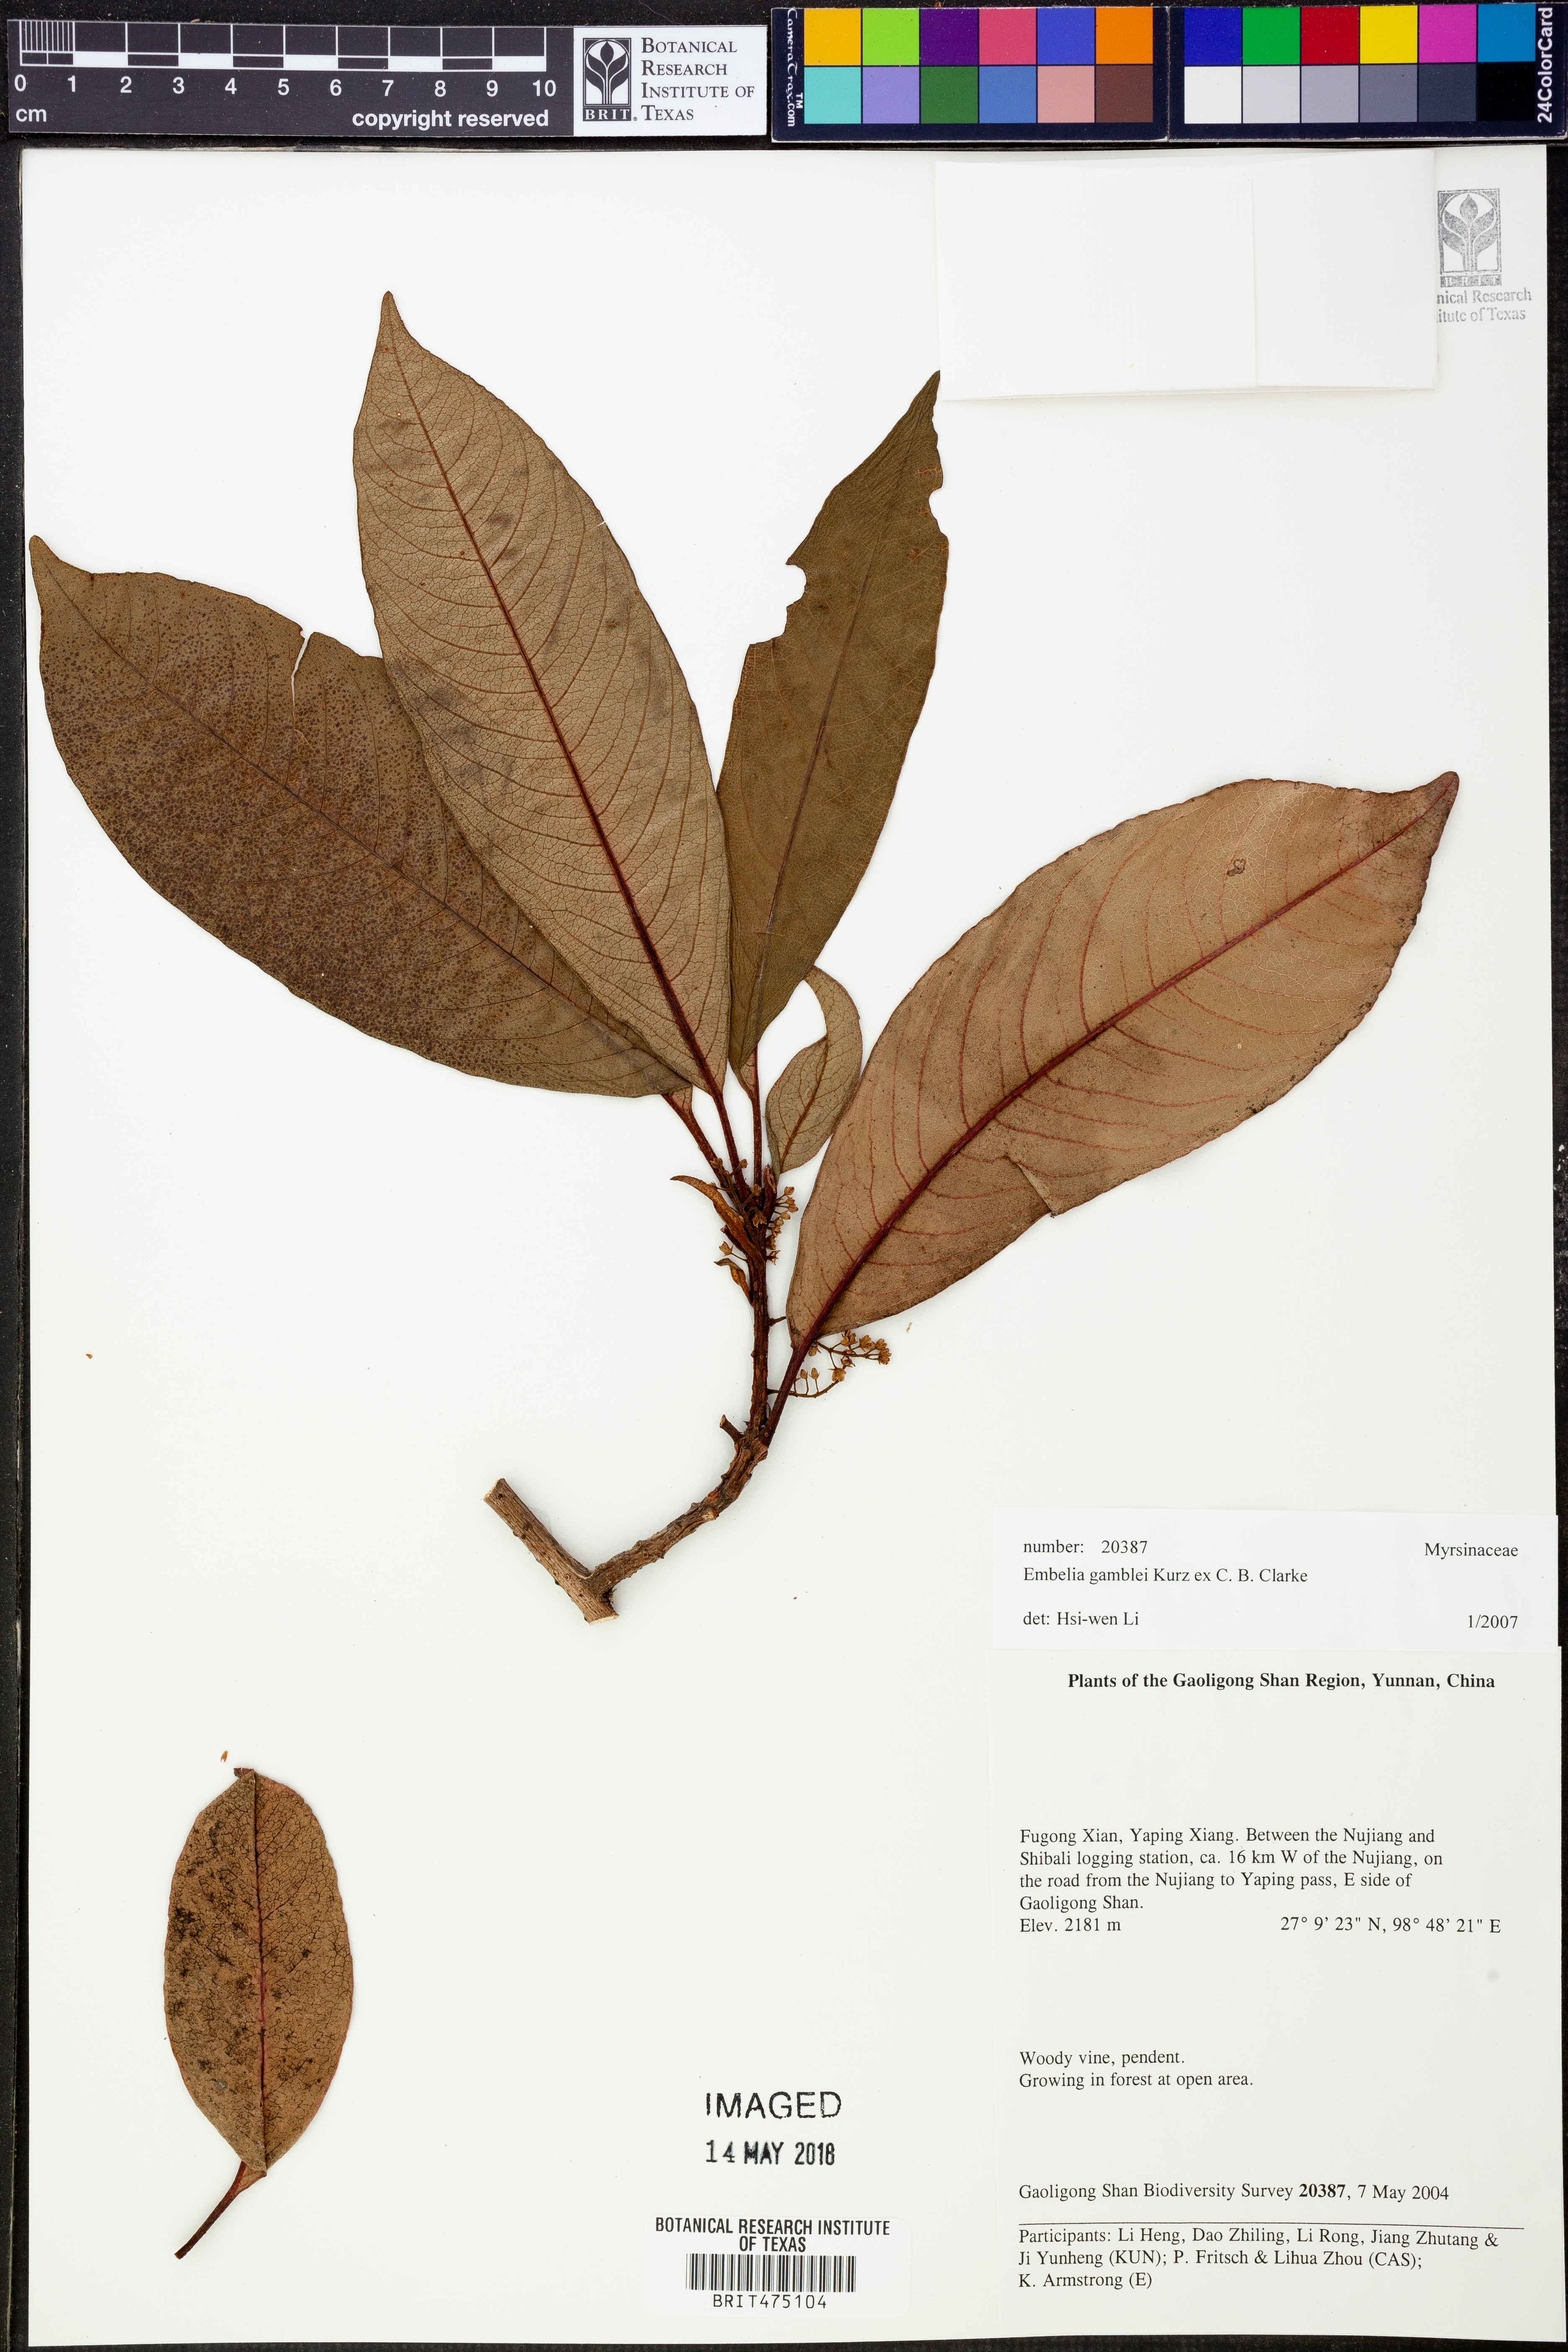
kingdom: Plantae
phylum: Tracheophyta
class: Magnoliopsida
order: Ericales
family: Primulaceae
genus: Embelia
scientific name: Embelia frondosa
